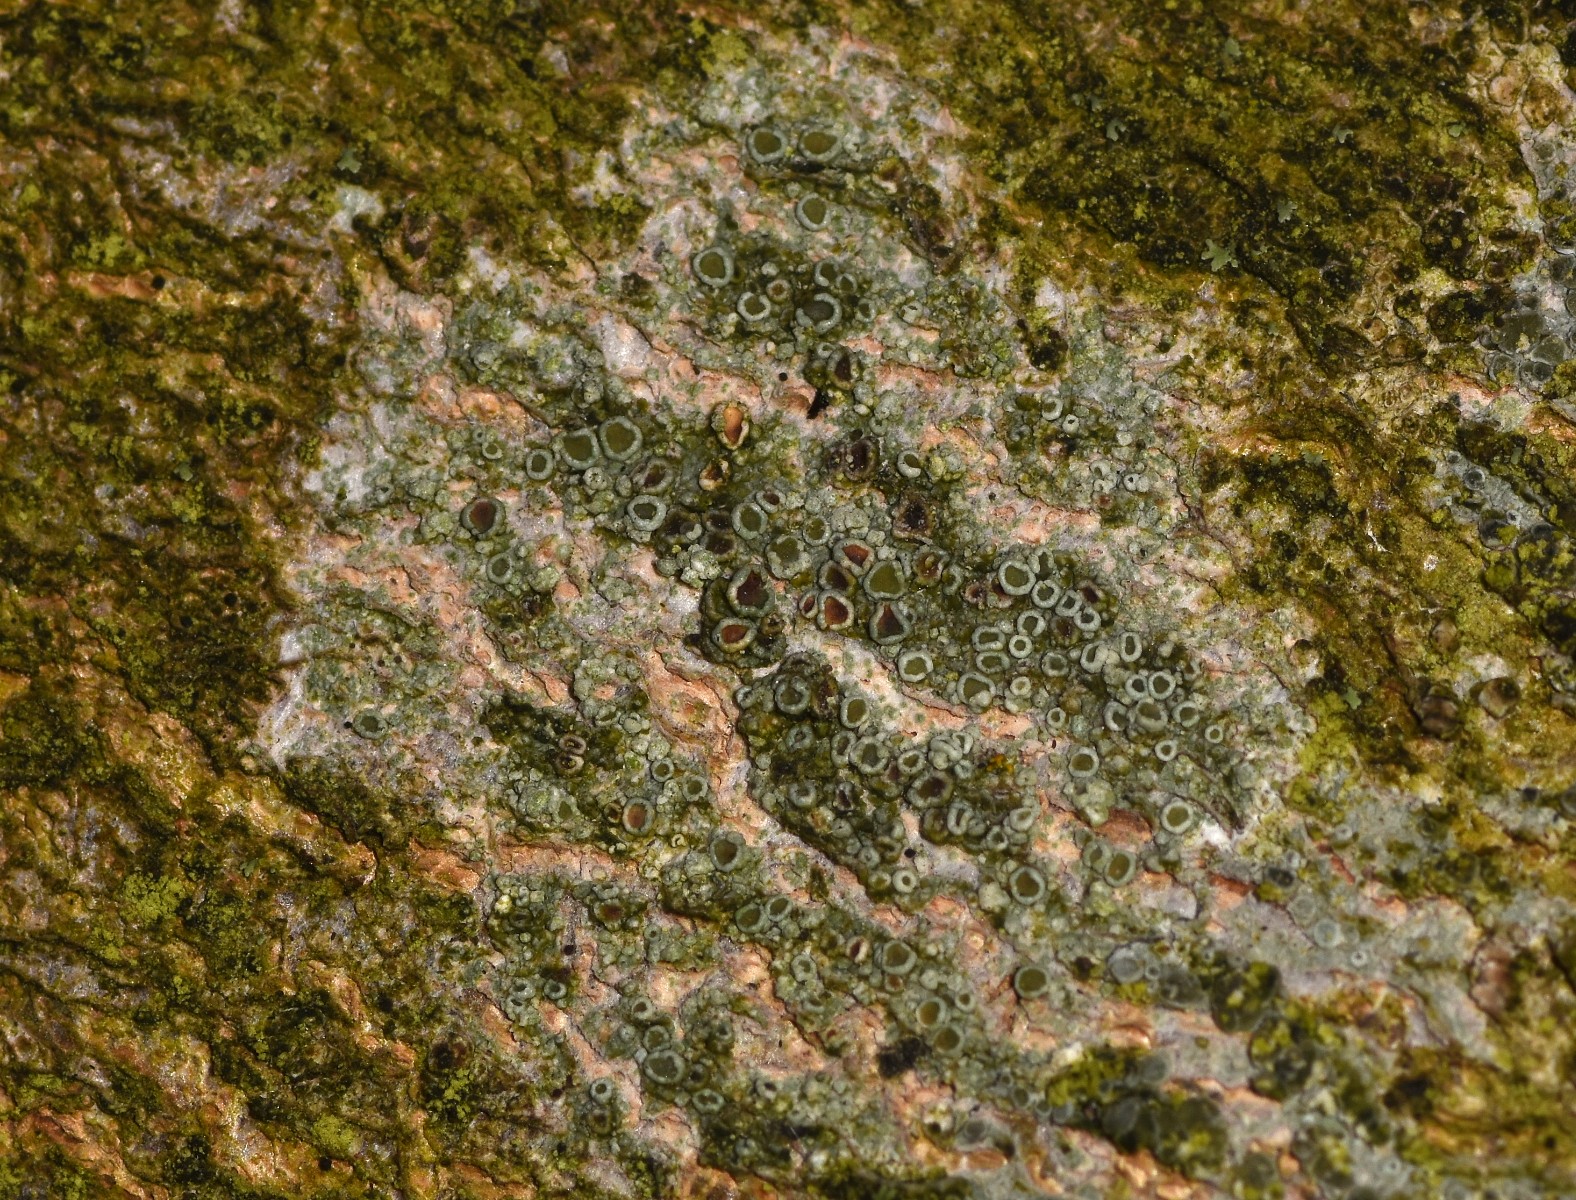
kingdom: Fungi
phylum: Ascomycota
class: Lecanoromycetes
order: Lecanorales
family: Lecanoraceae
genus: Lecanora
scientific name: Lecanora chlarotera
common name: brun kantskivelav
